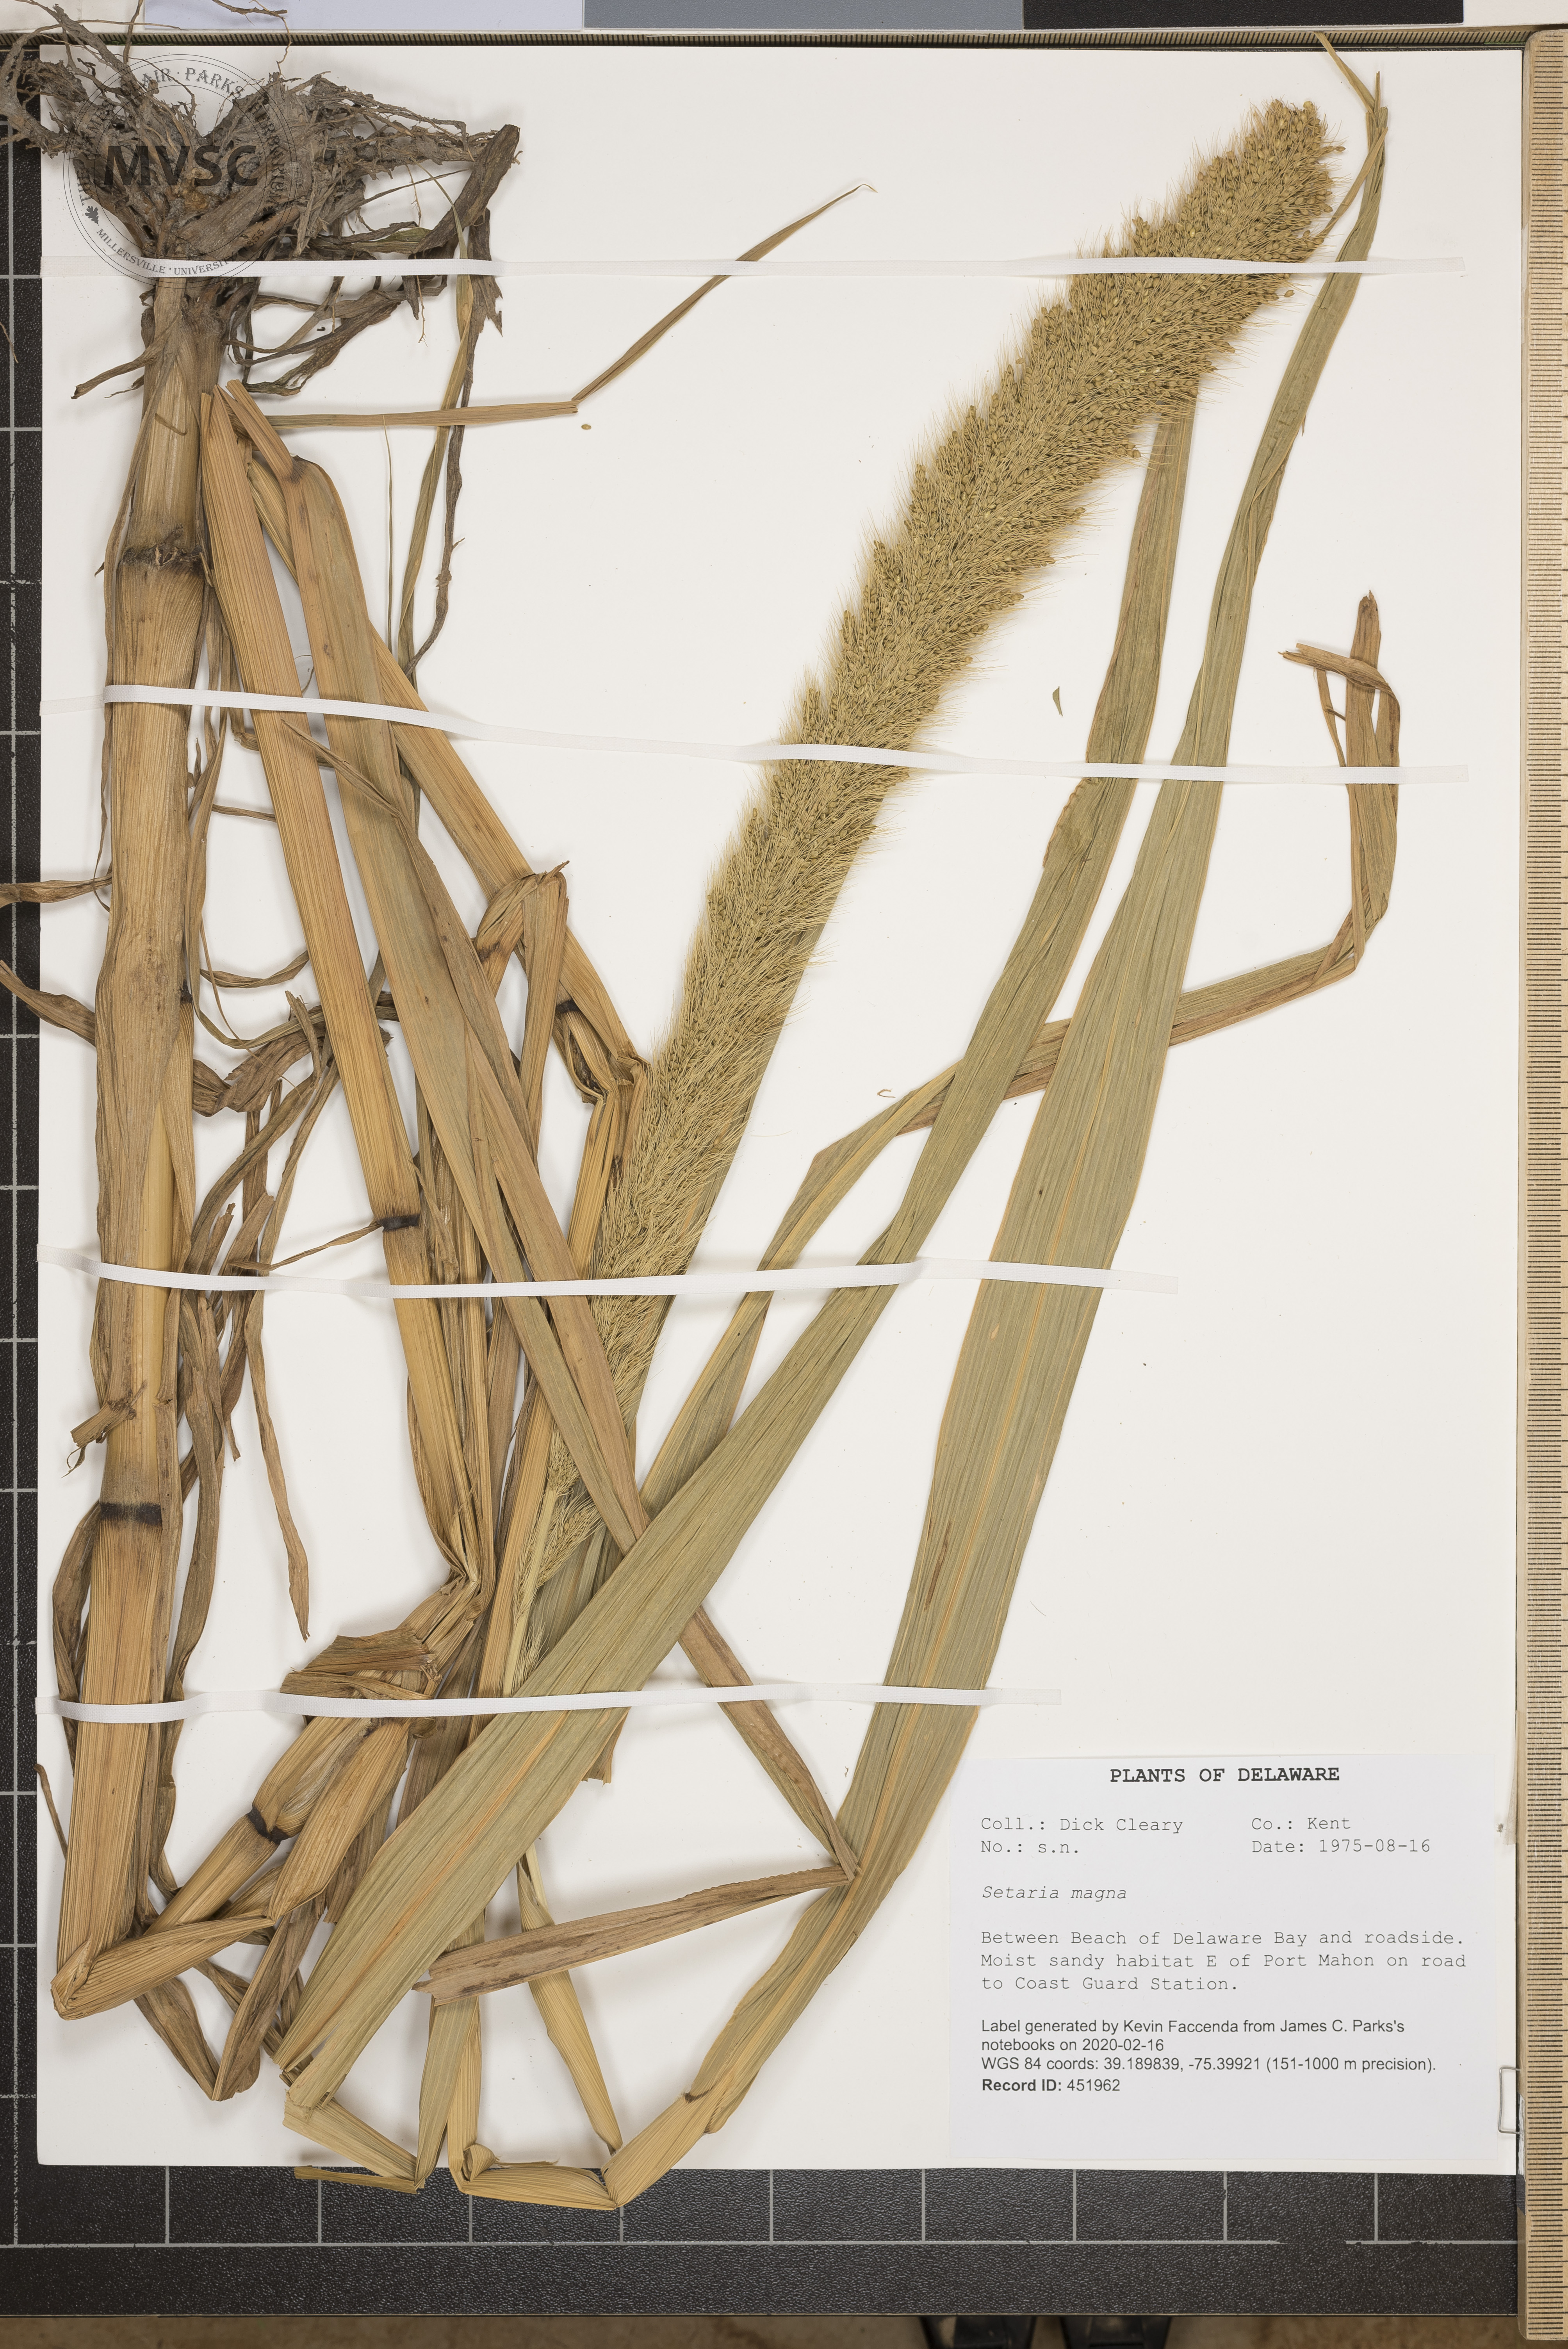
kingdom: Plantae
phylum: Tracheophyta
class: Liliopsida
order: Poales
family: Poaceae
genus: Setaria
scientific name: Setaria magna
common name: Giant bristle grass
